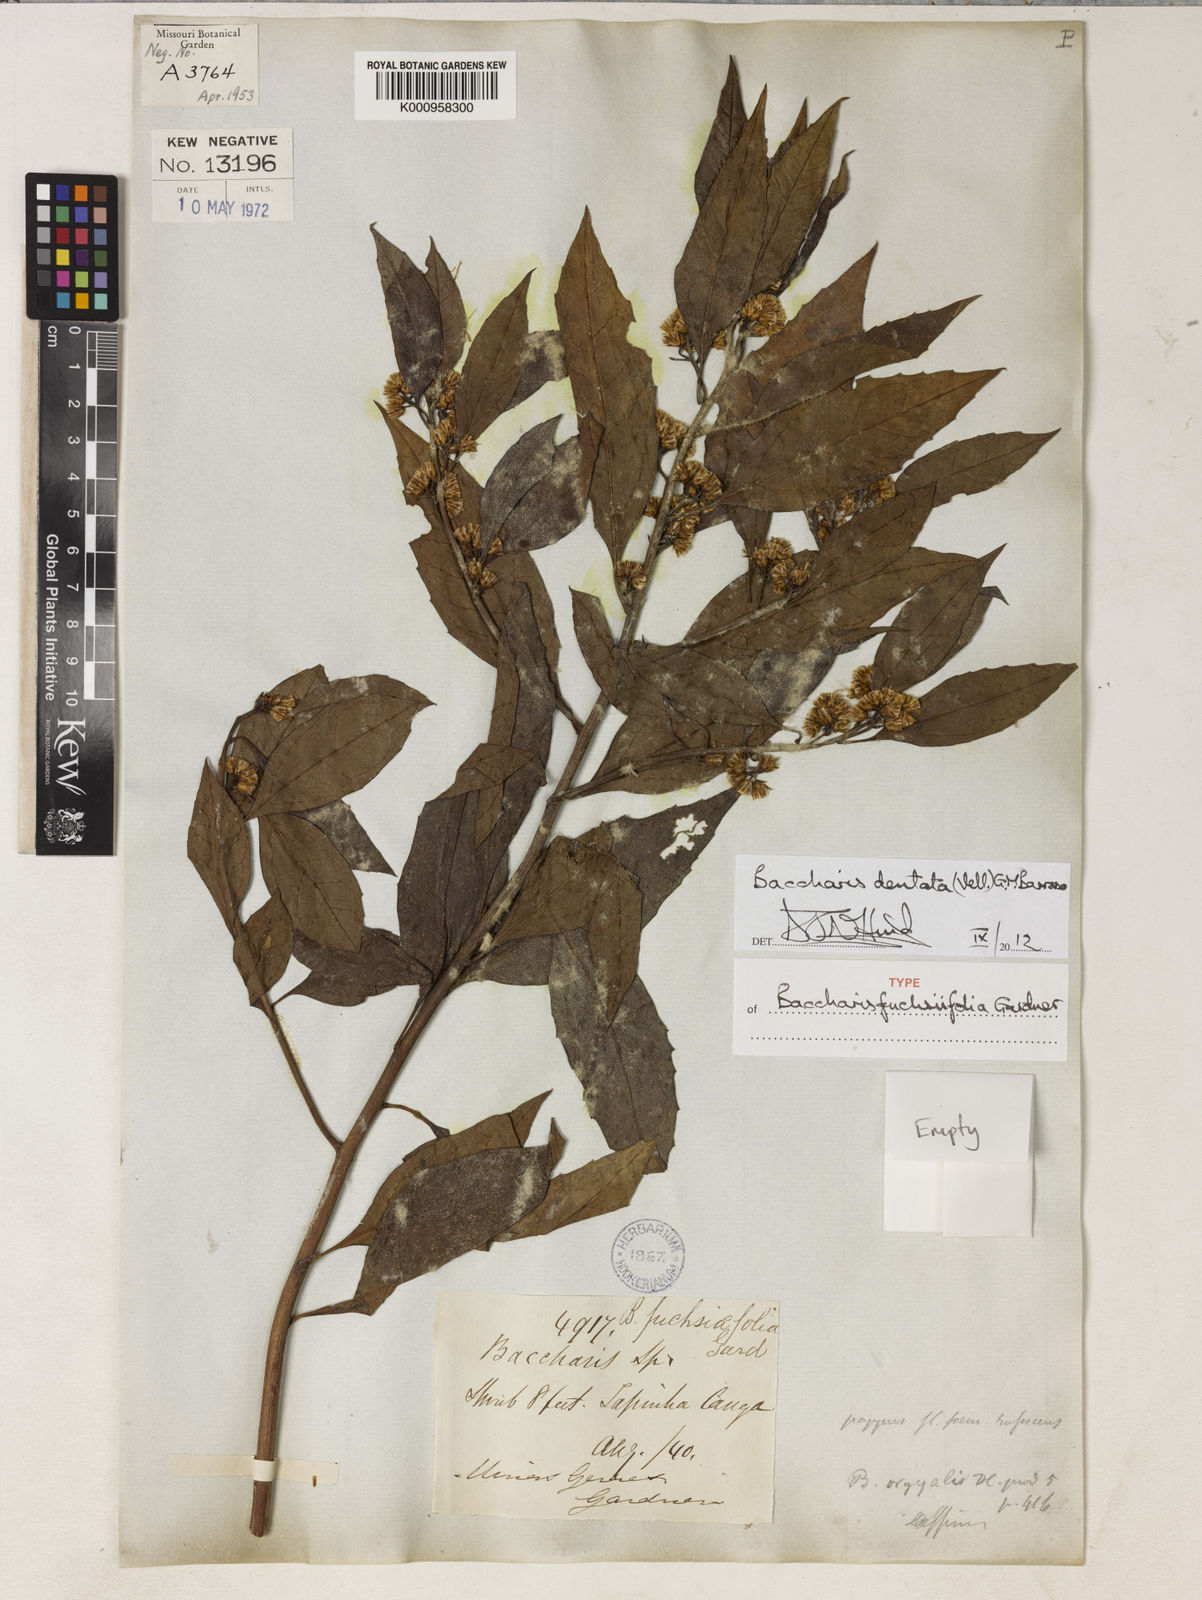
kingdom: Plantae
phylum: Tracheophyta
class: Magnoliopsida
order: Asterales
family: Asteraceae
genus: Baccharis
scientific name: Baccharis dentata
